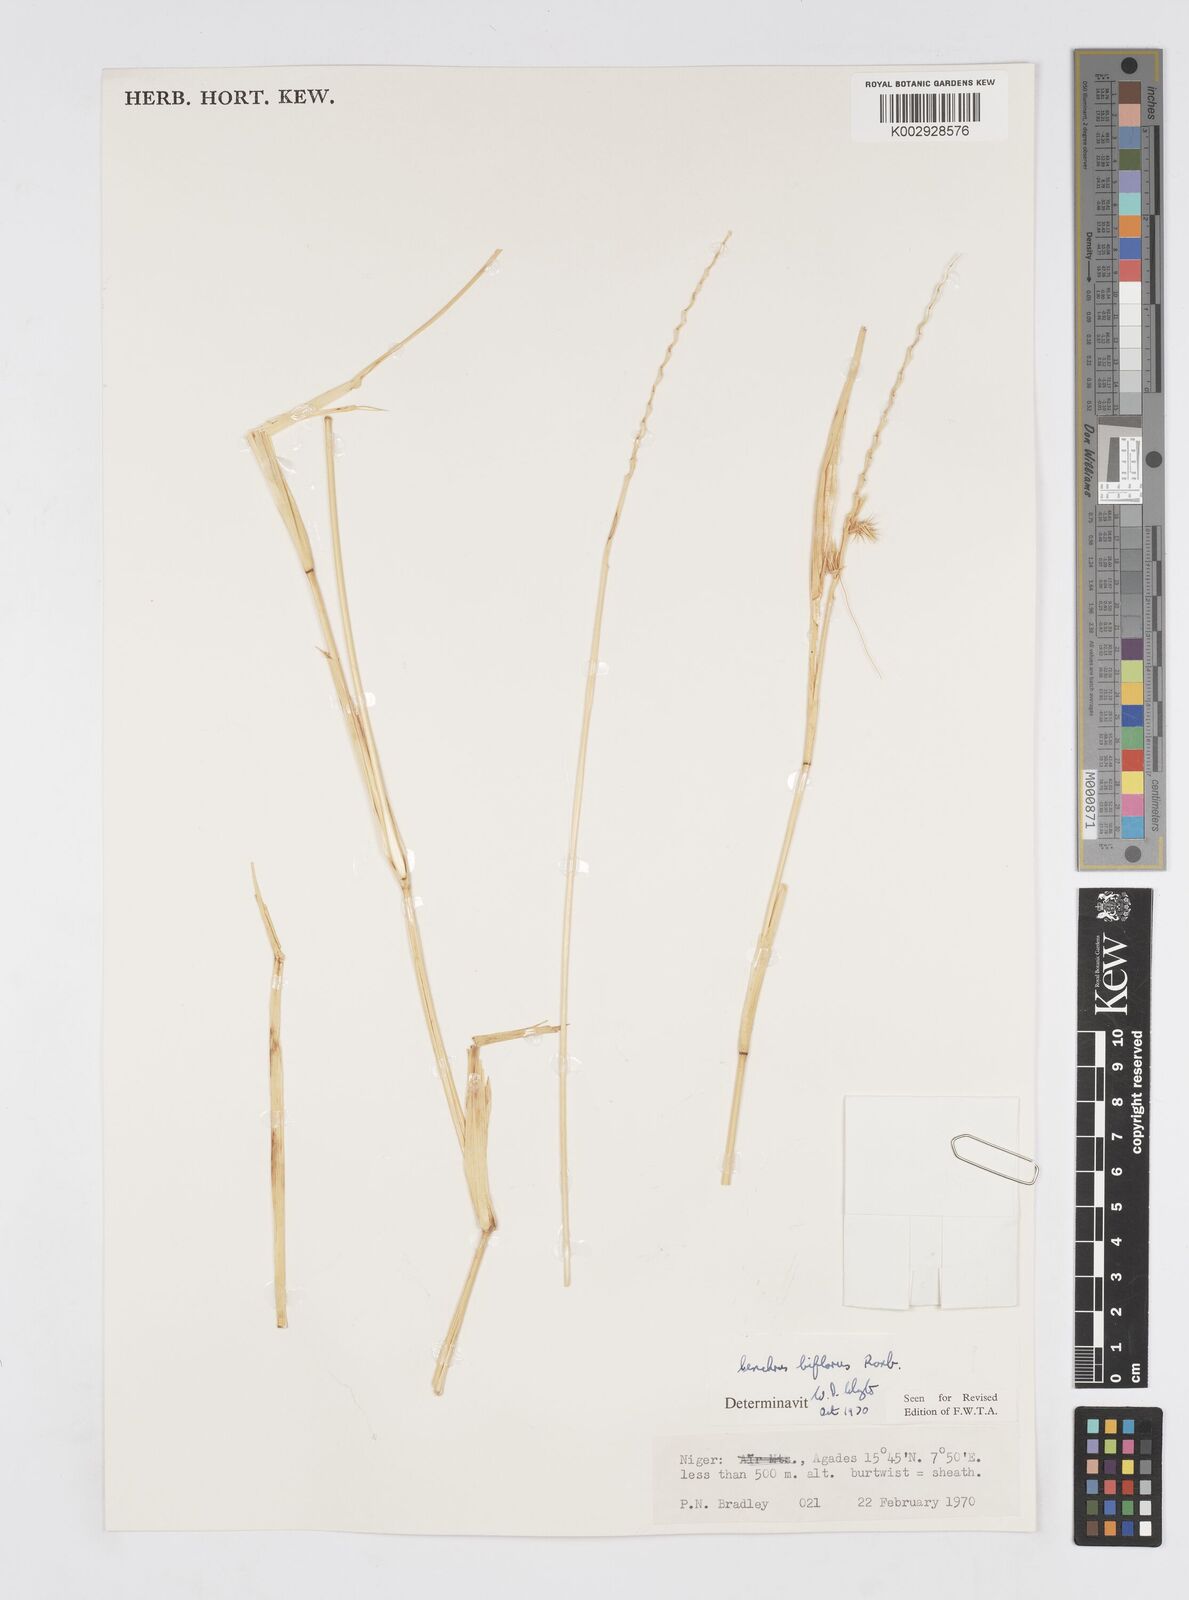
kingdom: Plantae
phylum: Tracheophyta
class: Liliopsida
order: Poales
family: Poaceae
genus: Cenchrus
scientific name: Cenchrus biflorus
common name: Indian sandbur
